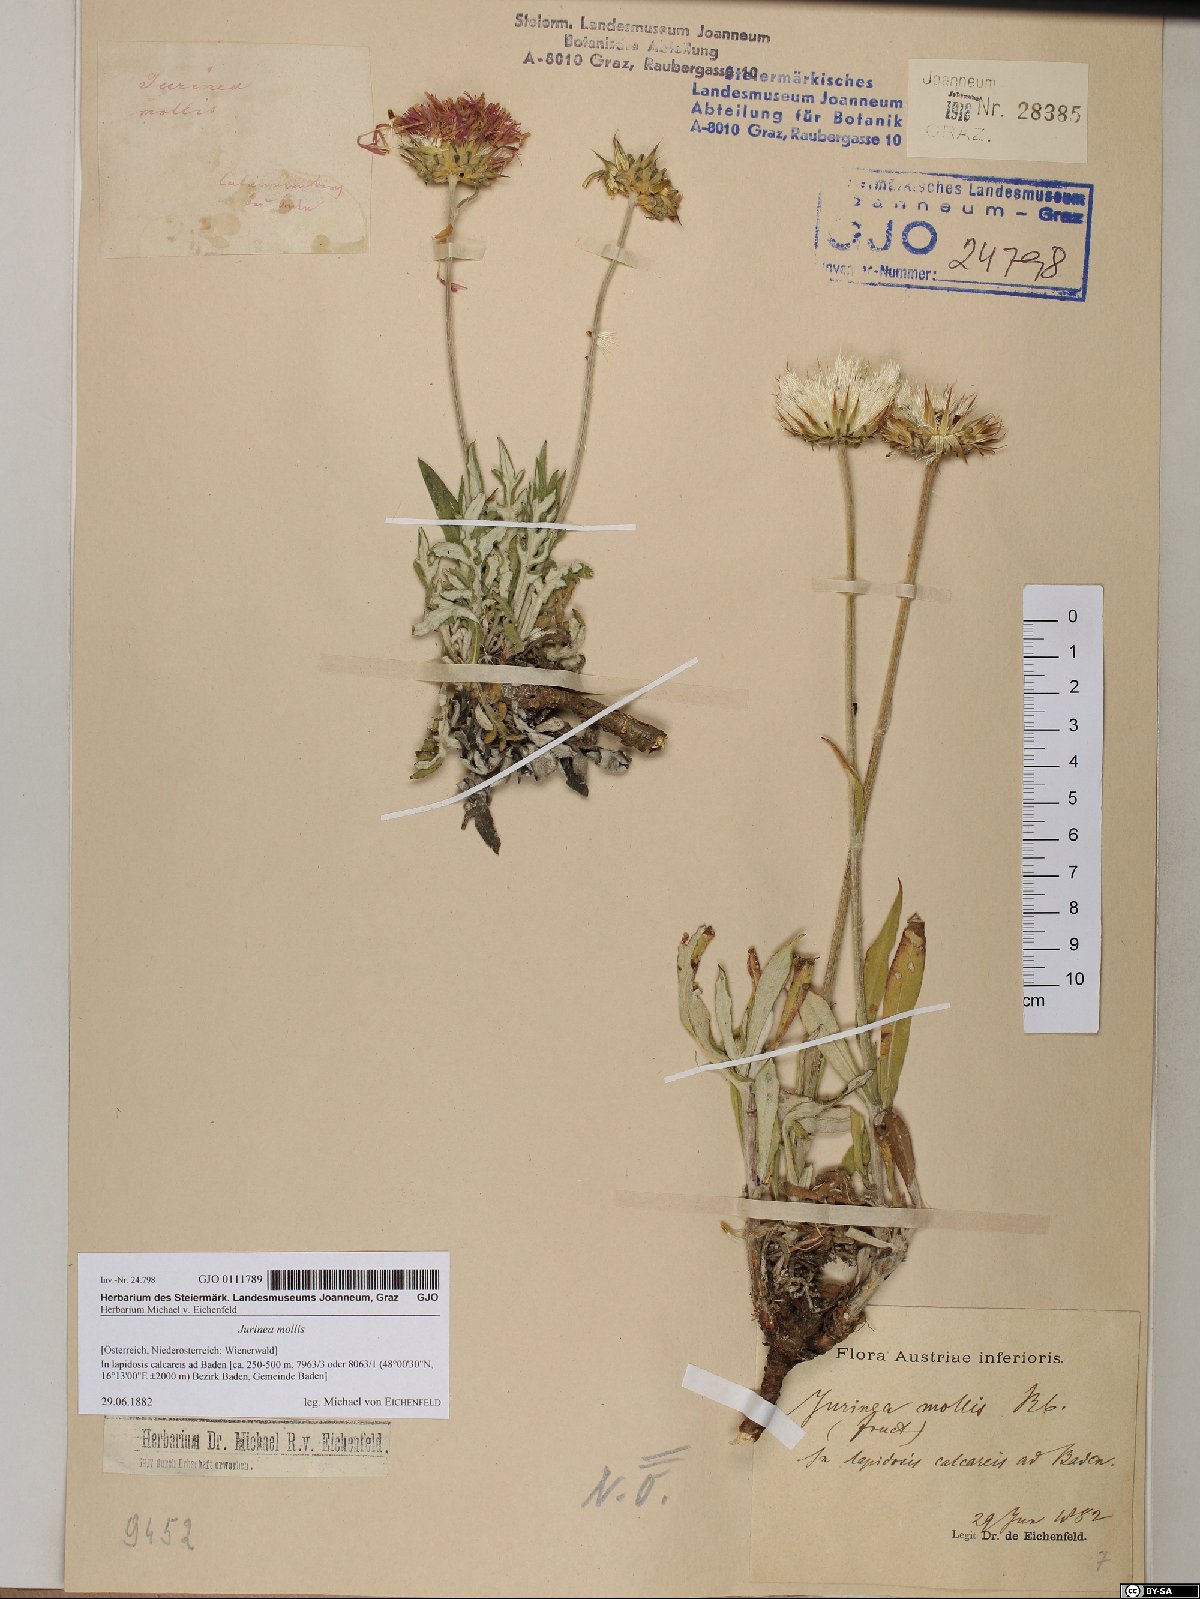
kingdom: Plantae
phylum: Tracheophyta
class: Magnoliopsida
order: Asterales
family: Asteraceae
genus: Jurinea
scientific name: Jurinea mollis
